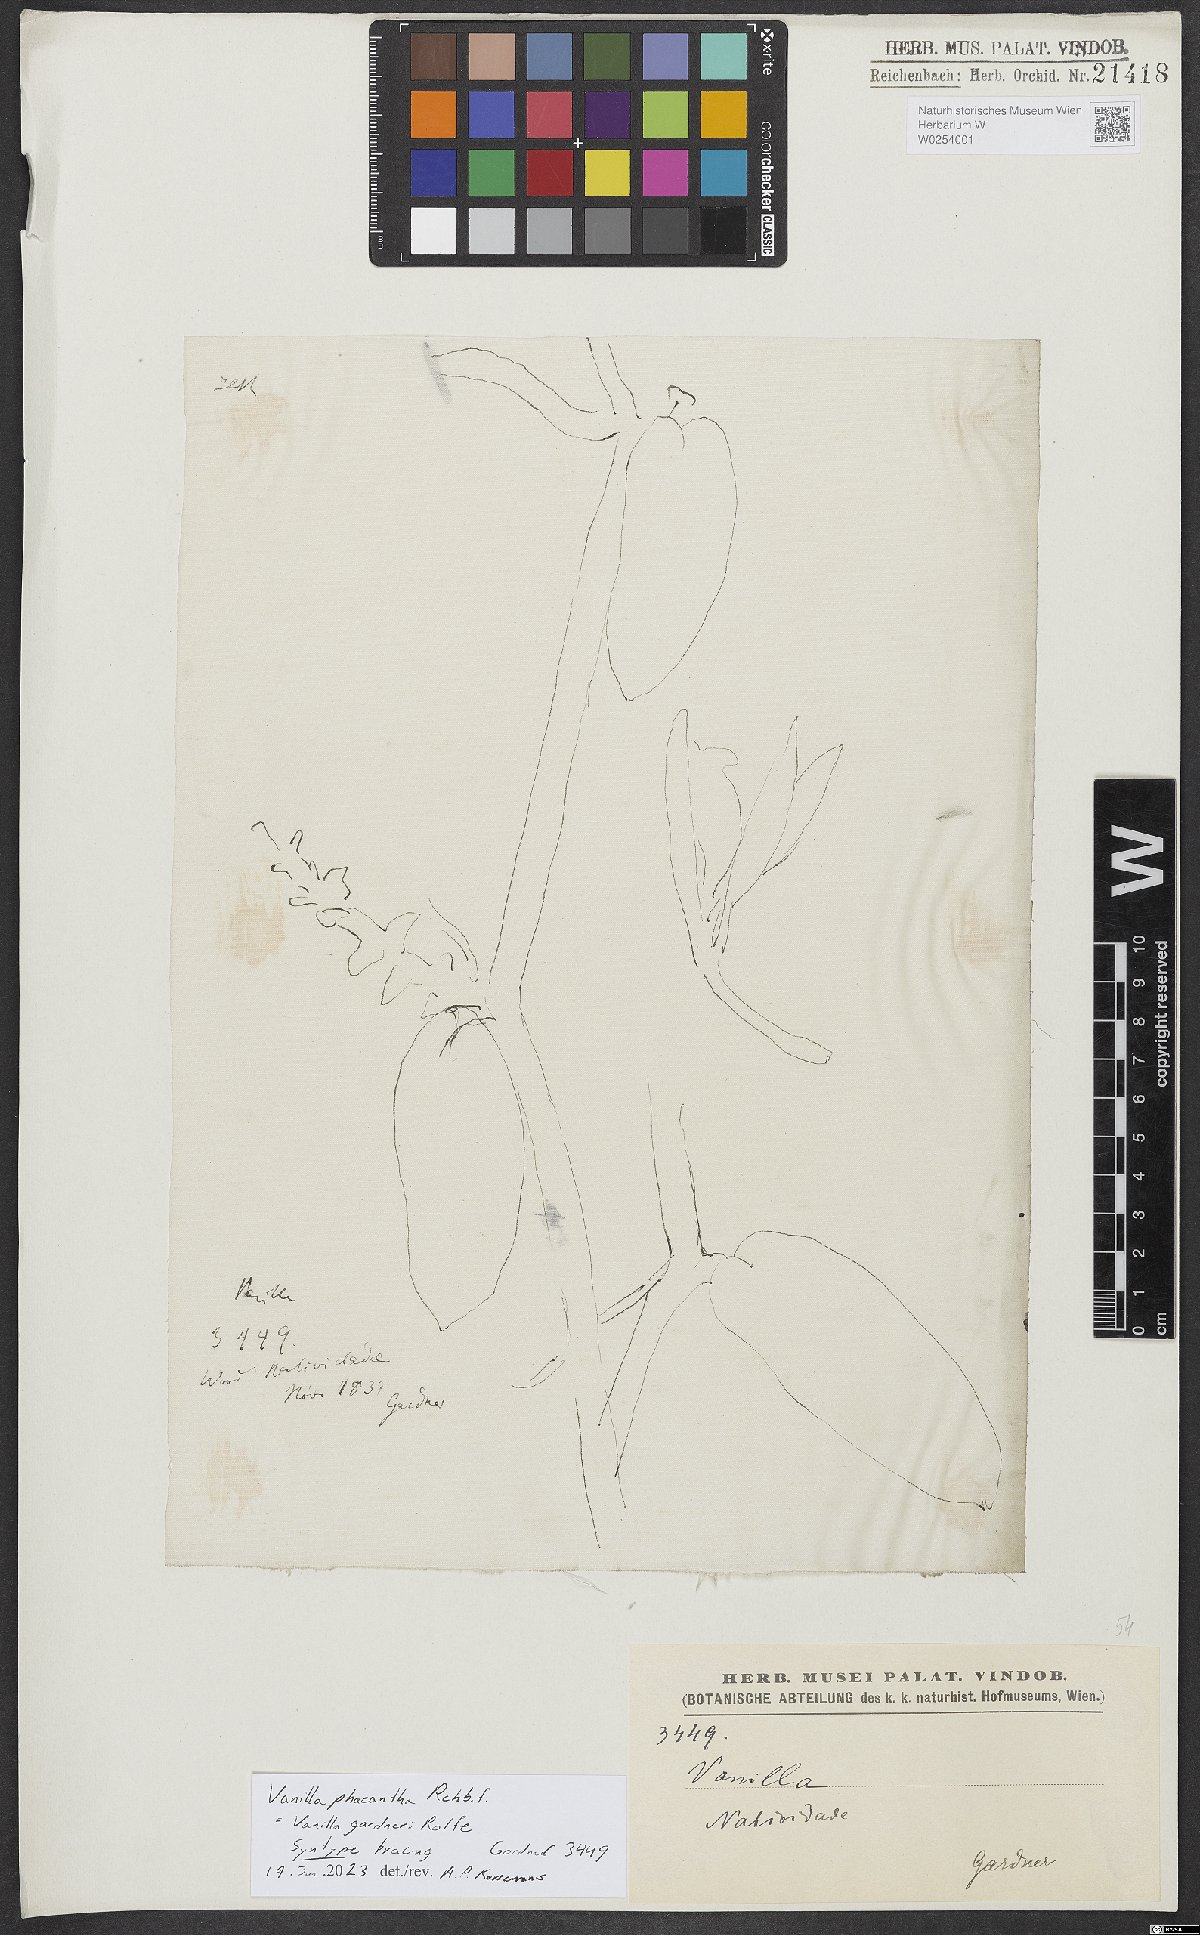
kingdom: Plantae
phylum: Tracheophyta
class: Liliopsida
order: Asparagales
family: Orchidaceae
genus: Vanilla
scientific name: Vanilla phaeantha
